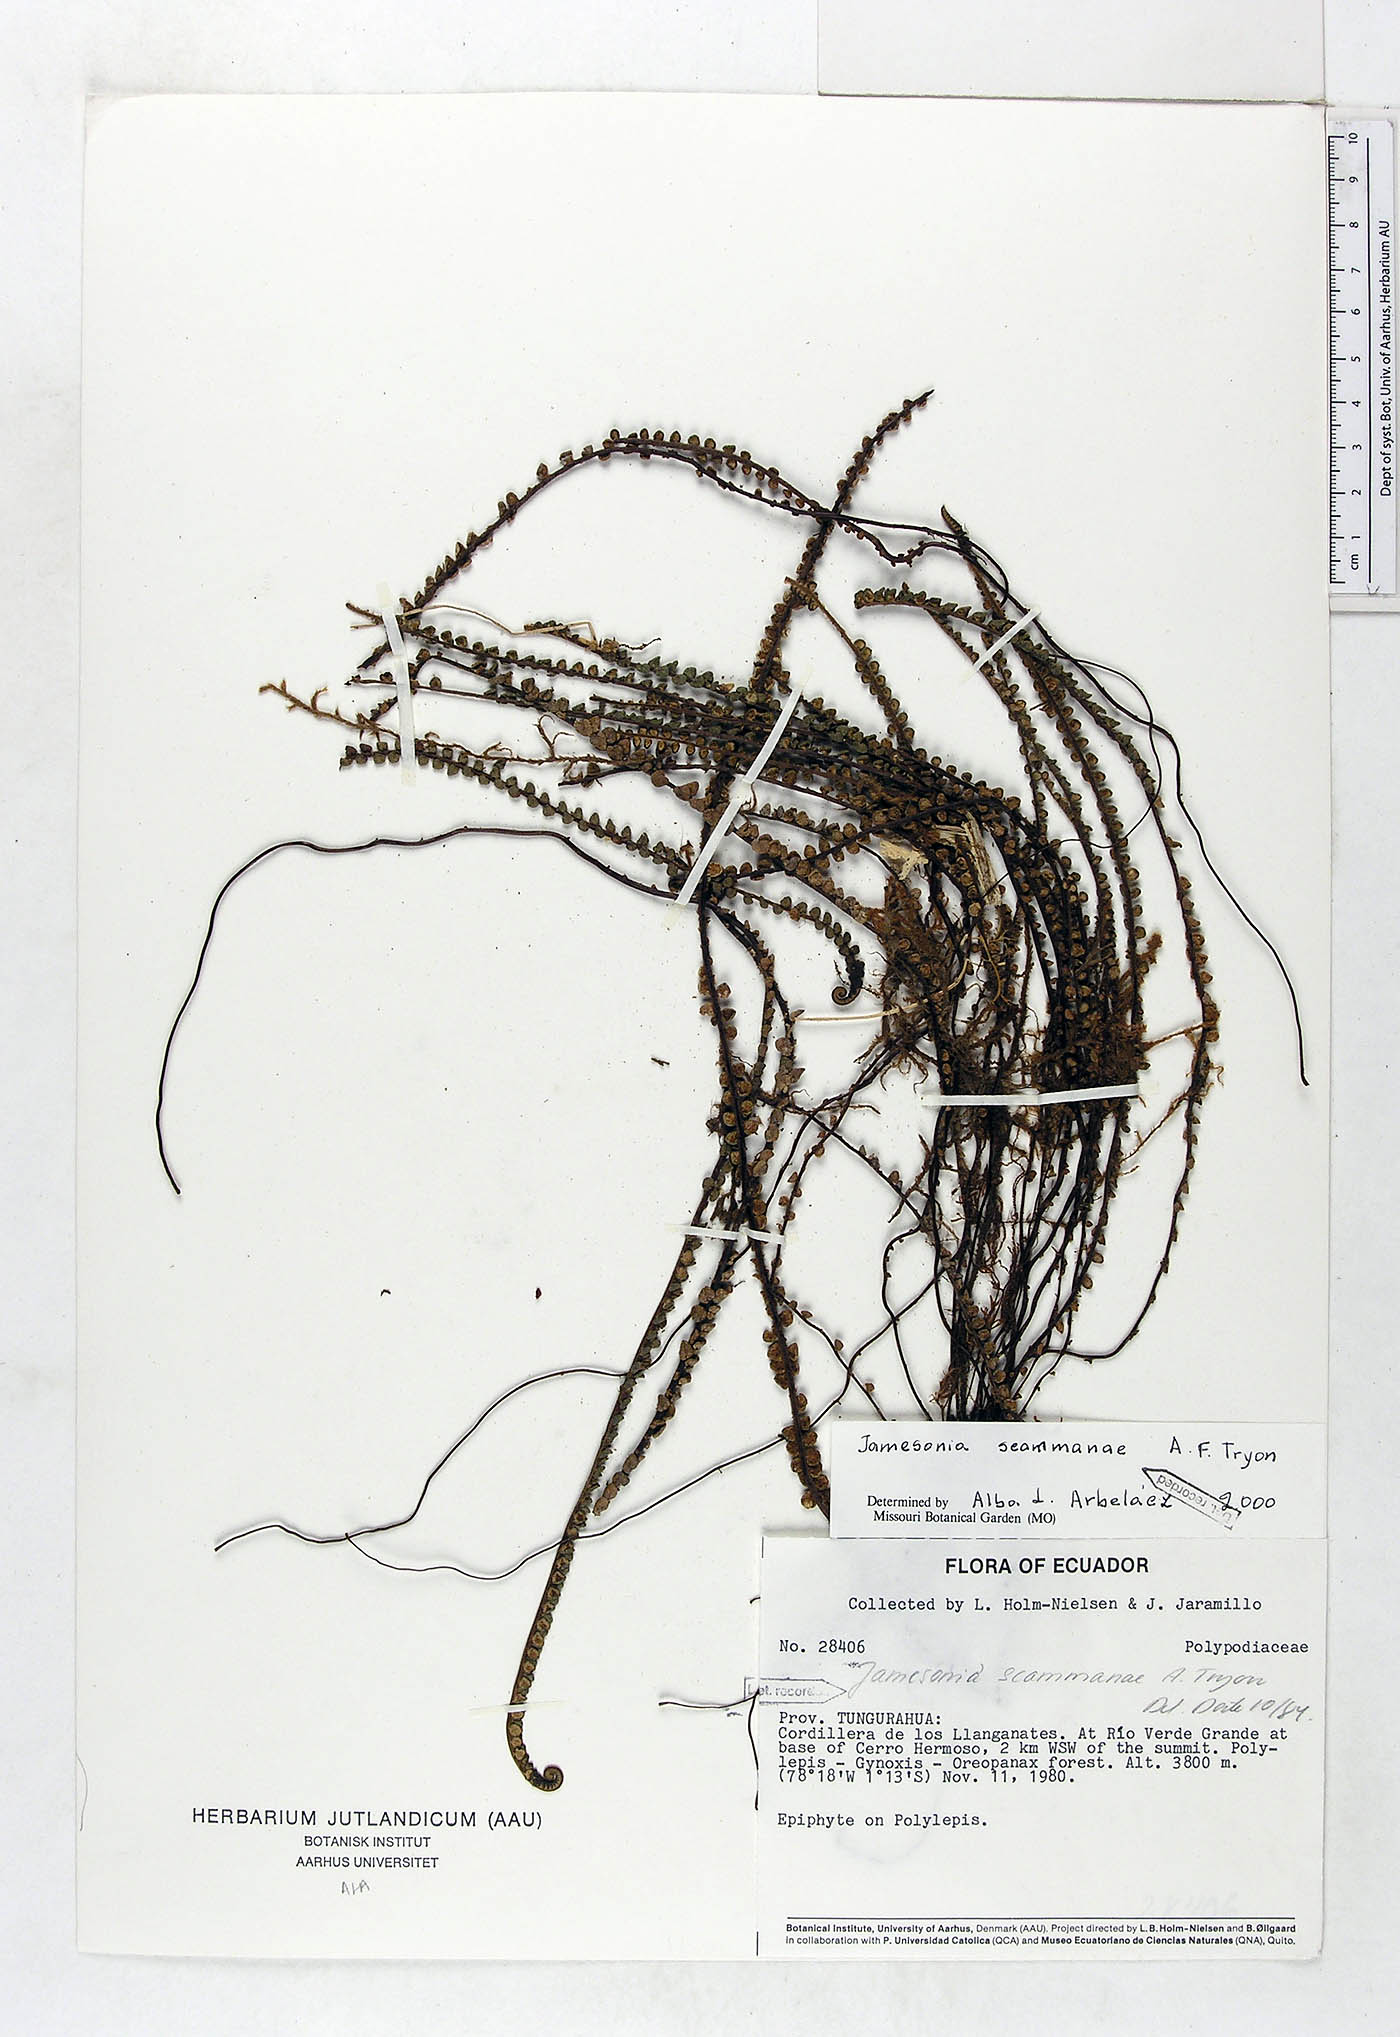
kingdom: Plantae
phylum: Tracheophyta
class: Polypodiopsida
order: Polypodiales
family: Pteridaceae
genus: Jamesonia
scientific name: Jamesonia scammanae
